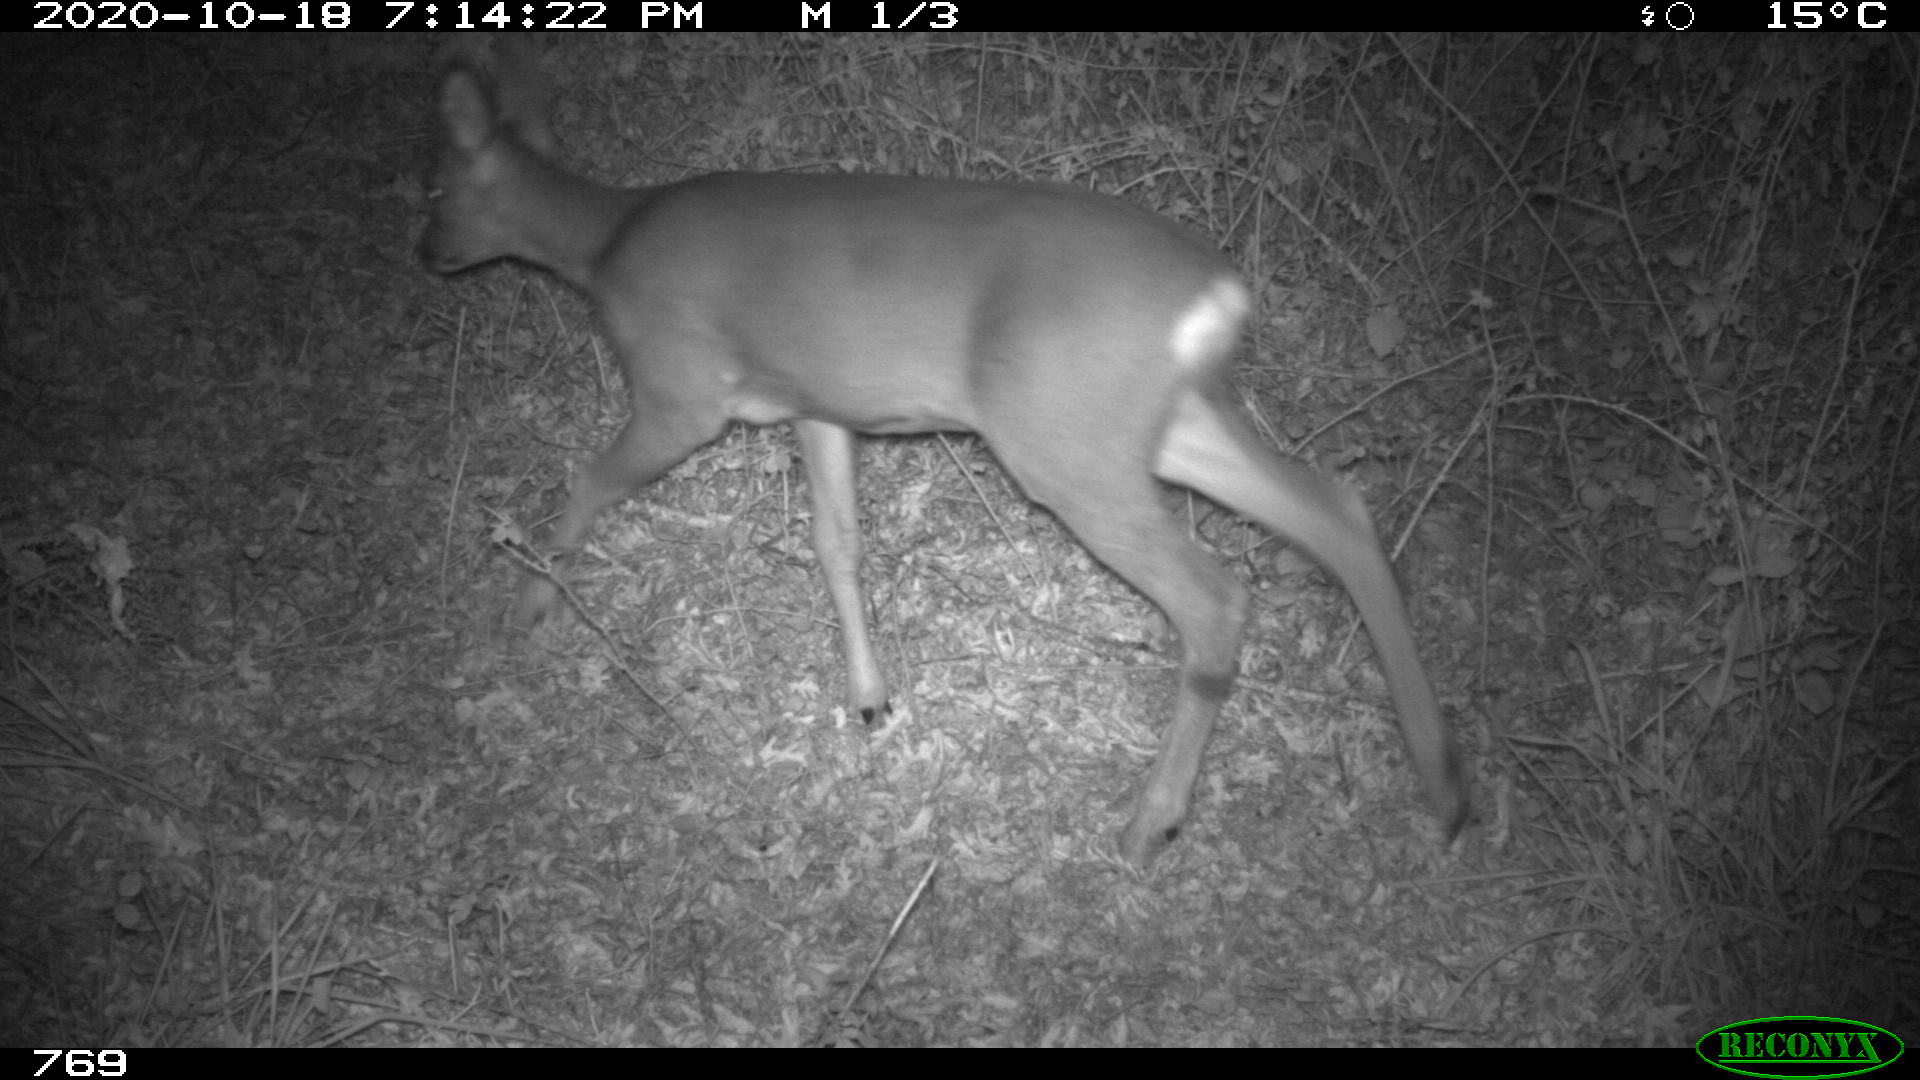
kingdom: Animalia
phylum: Chordata
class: Mammalia
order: Artiodactyla
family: Cervidae
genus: Capreolus
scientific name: Capreolus capreolus
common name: Western roe deer
